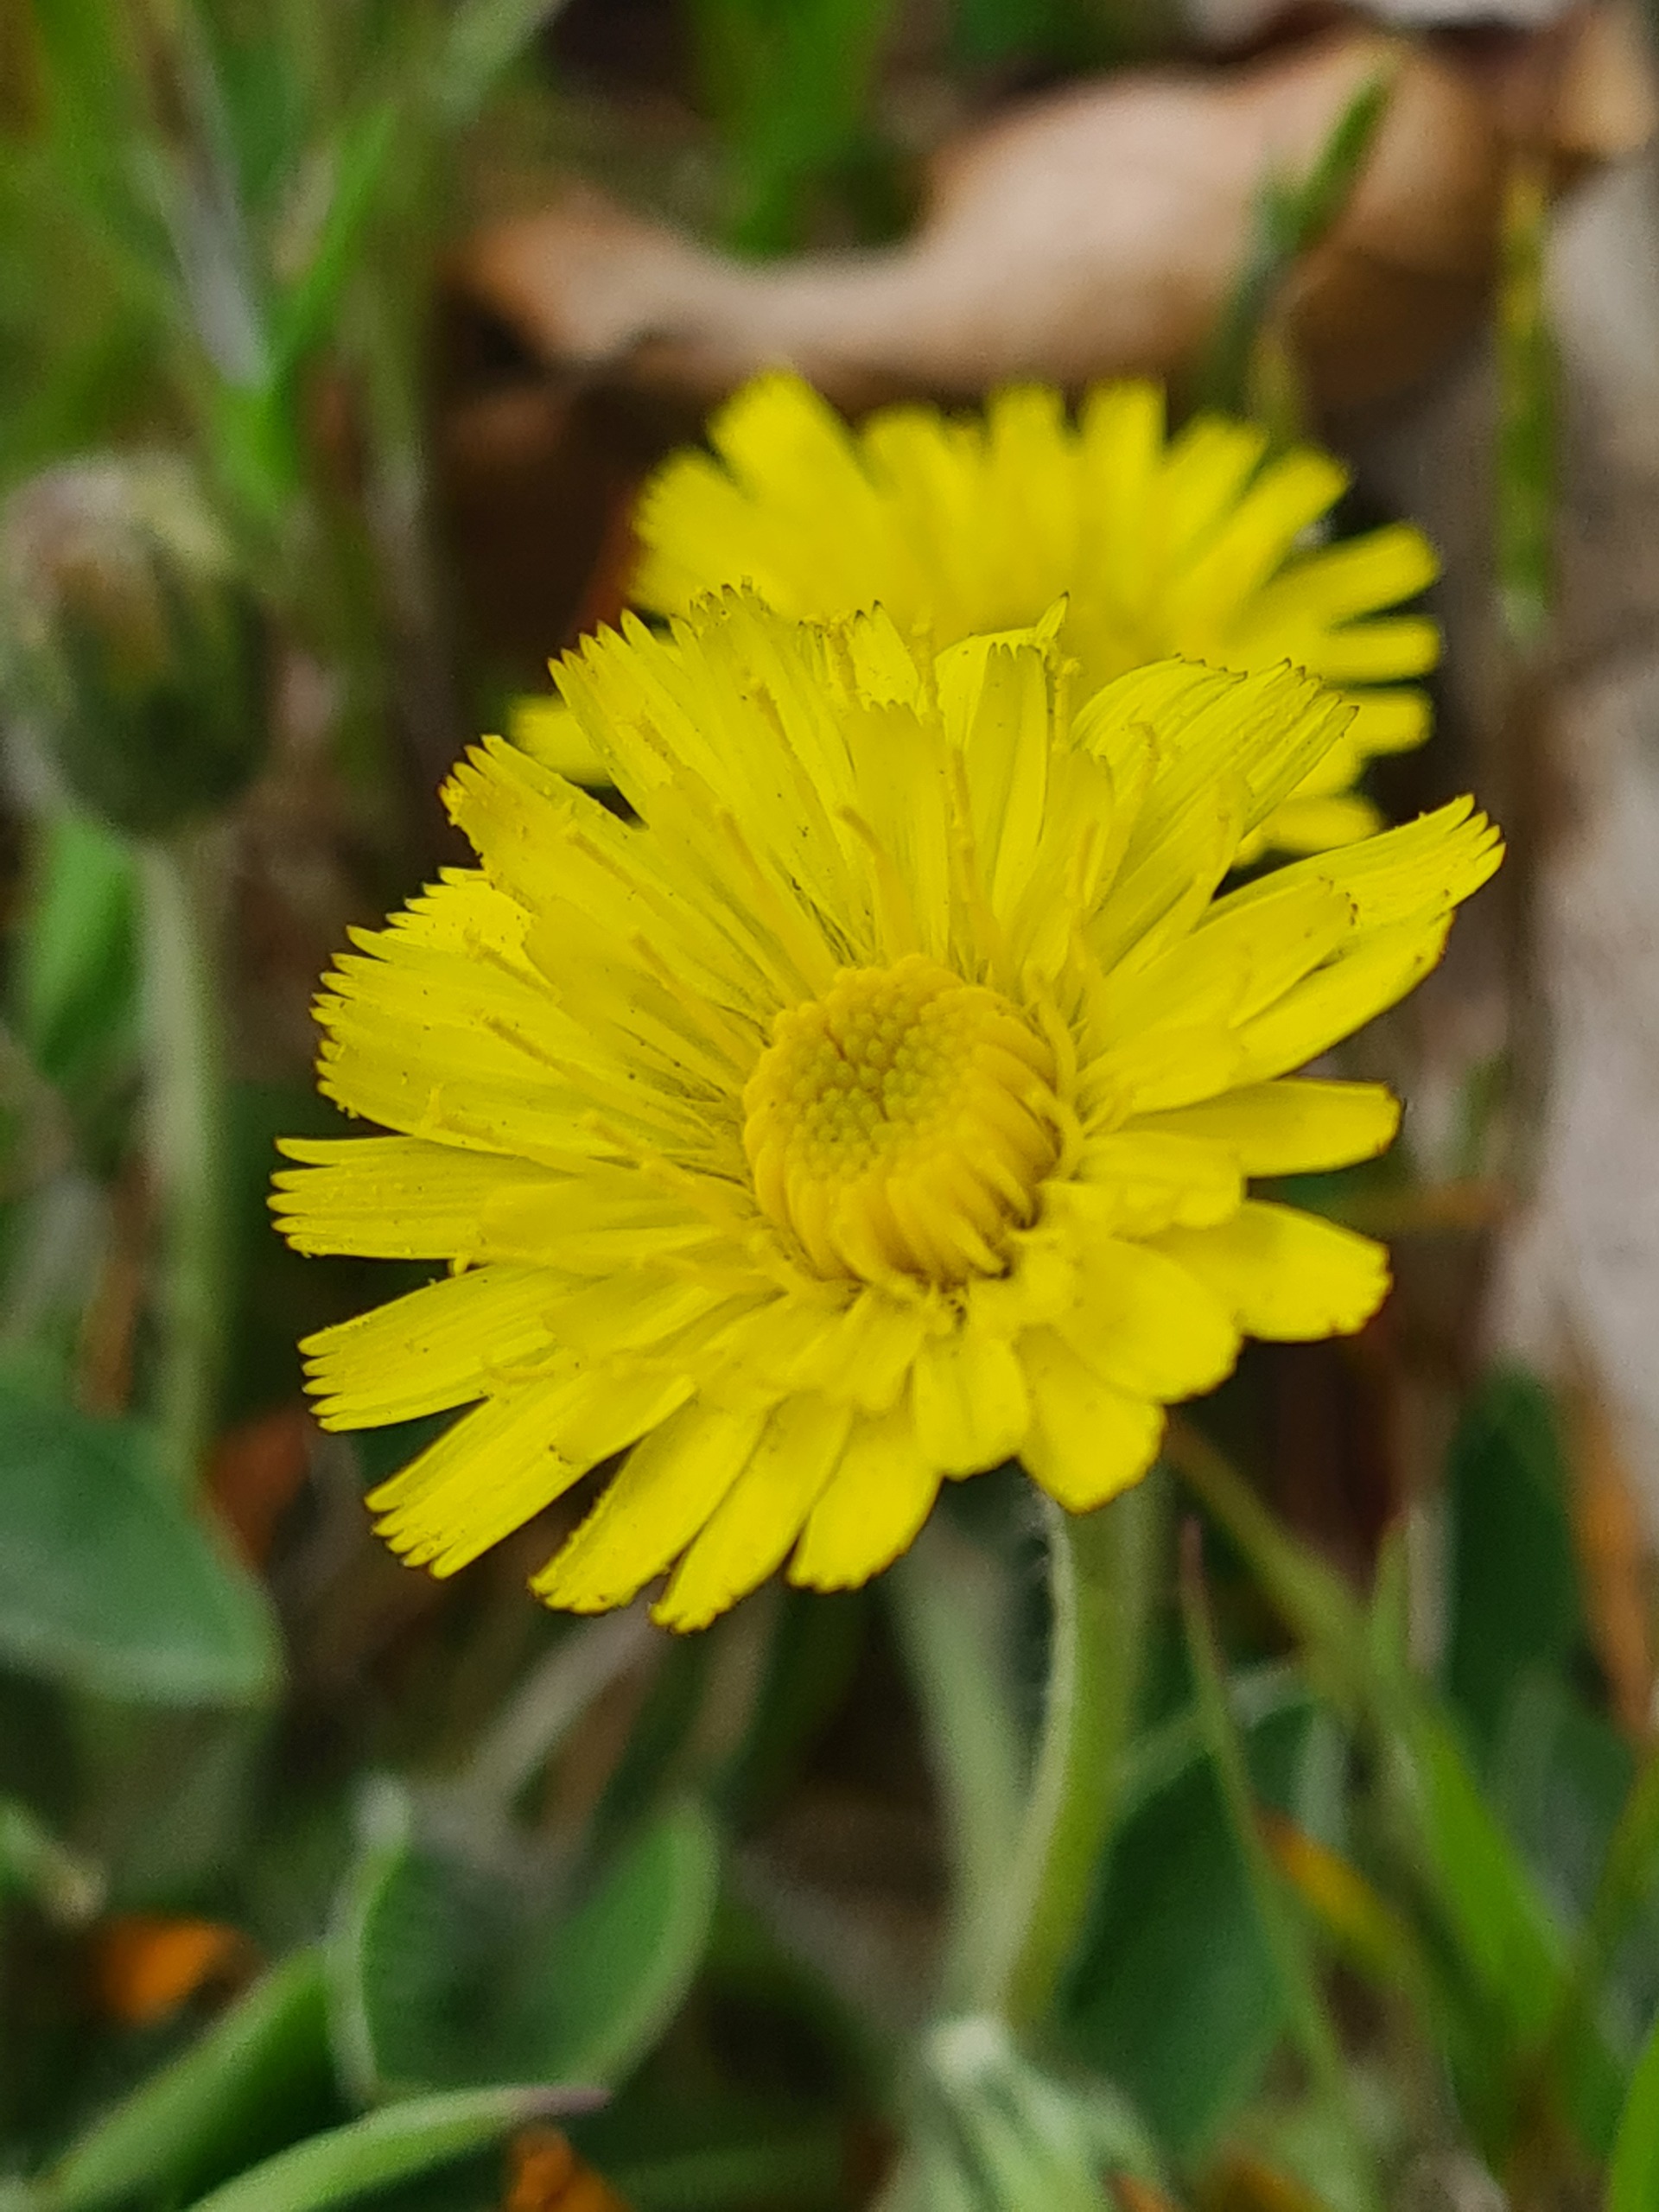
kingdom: Plantae
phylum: Tracheophyta
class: Magnoliopsida
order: Asterales
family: Asteraceae
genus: Pilosella
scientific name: Pilosella officinarum
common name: Håret høgeurt
